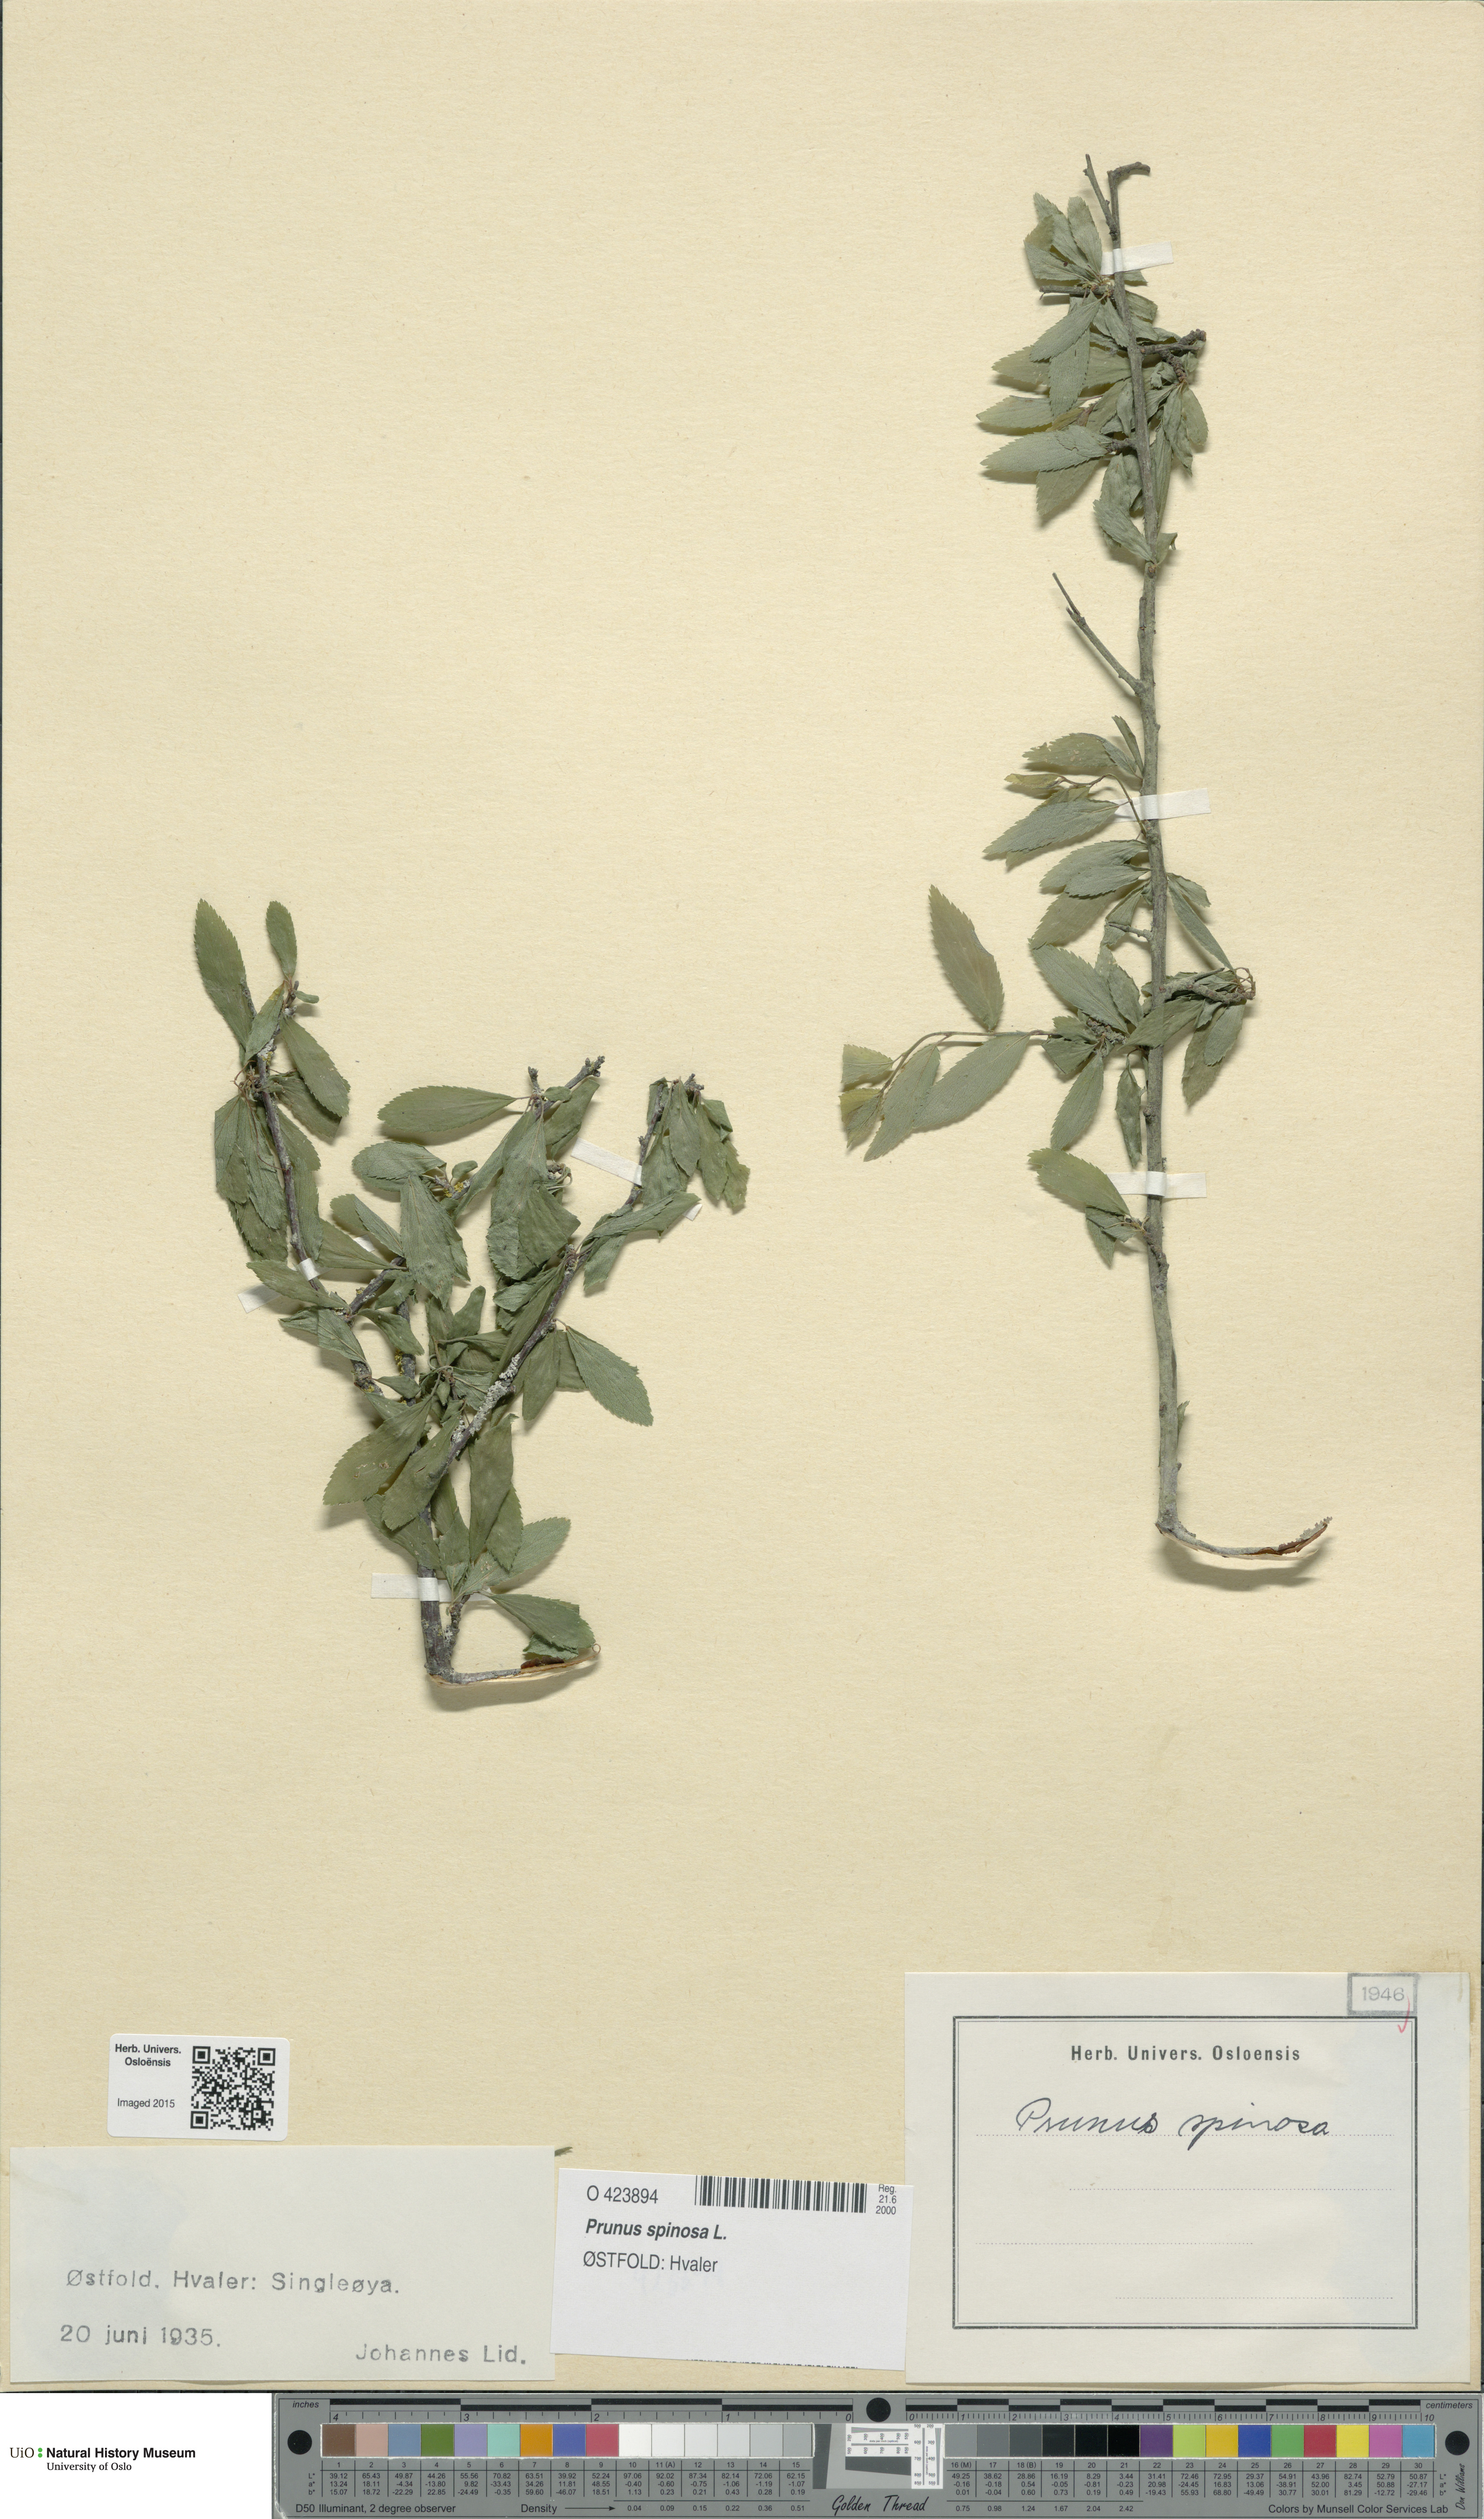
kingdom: Plantae
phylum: Tracheophyta
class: Magnoliopsida
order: Rosales
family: Rosaceae
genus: Prunus
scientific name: Prunus spinosa
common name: Blackthorn
